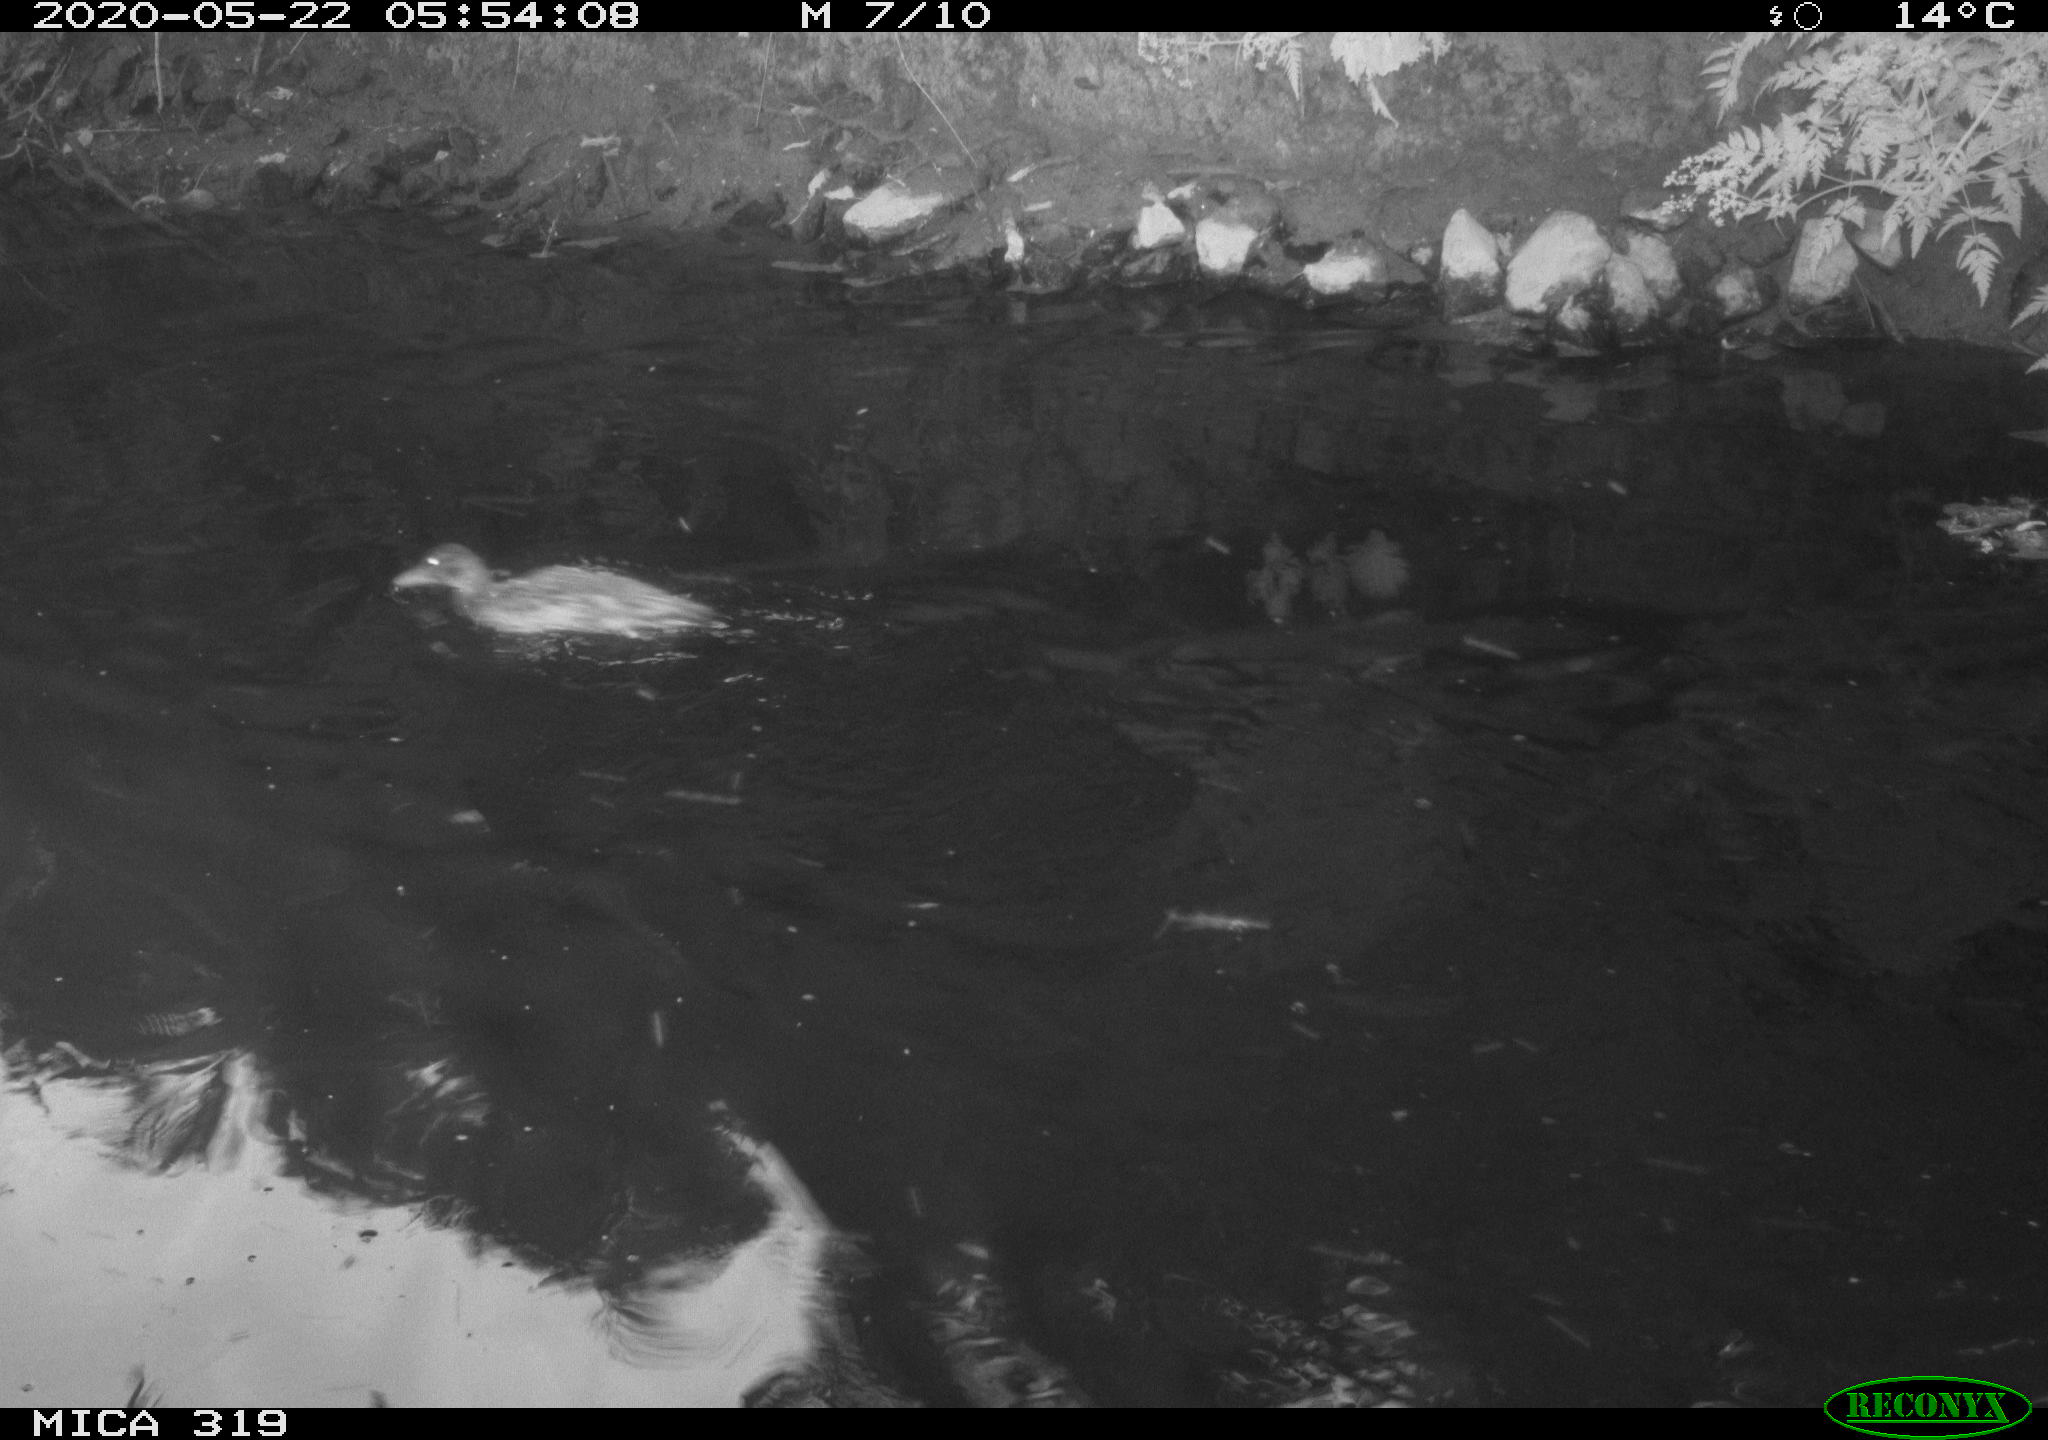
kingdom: Animalia
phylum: Chordata
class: Aves
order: Anseriformes
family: Anatidae
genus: Anas
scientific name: Anas platyrhynchos
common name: Mallard
